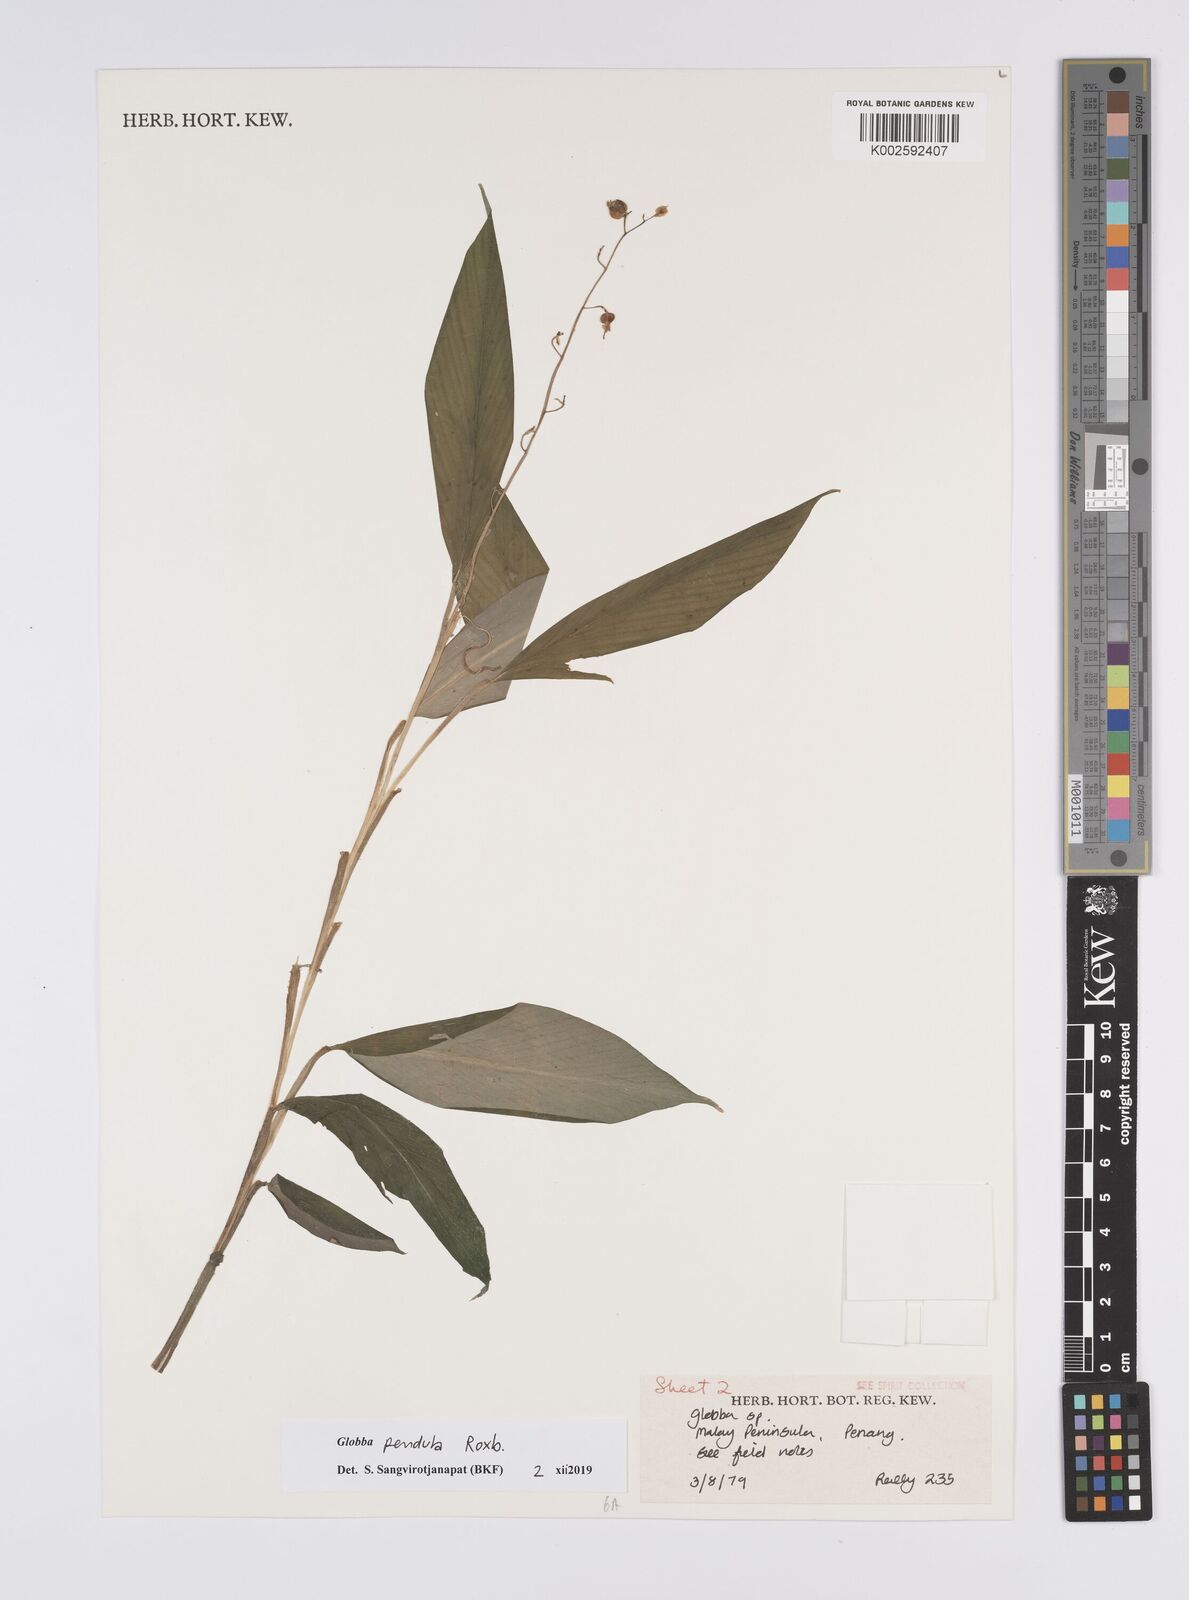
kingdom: Plantae
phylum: Tracheophyta
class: Liliopsida
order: Zingiberales
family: Zingiberaceae
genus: Globba
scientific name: Globba pendula
